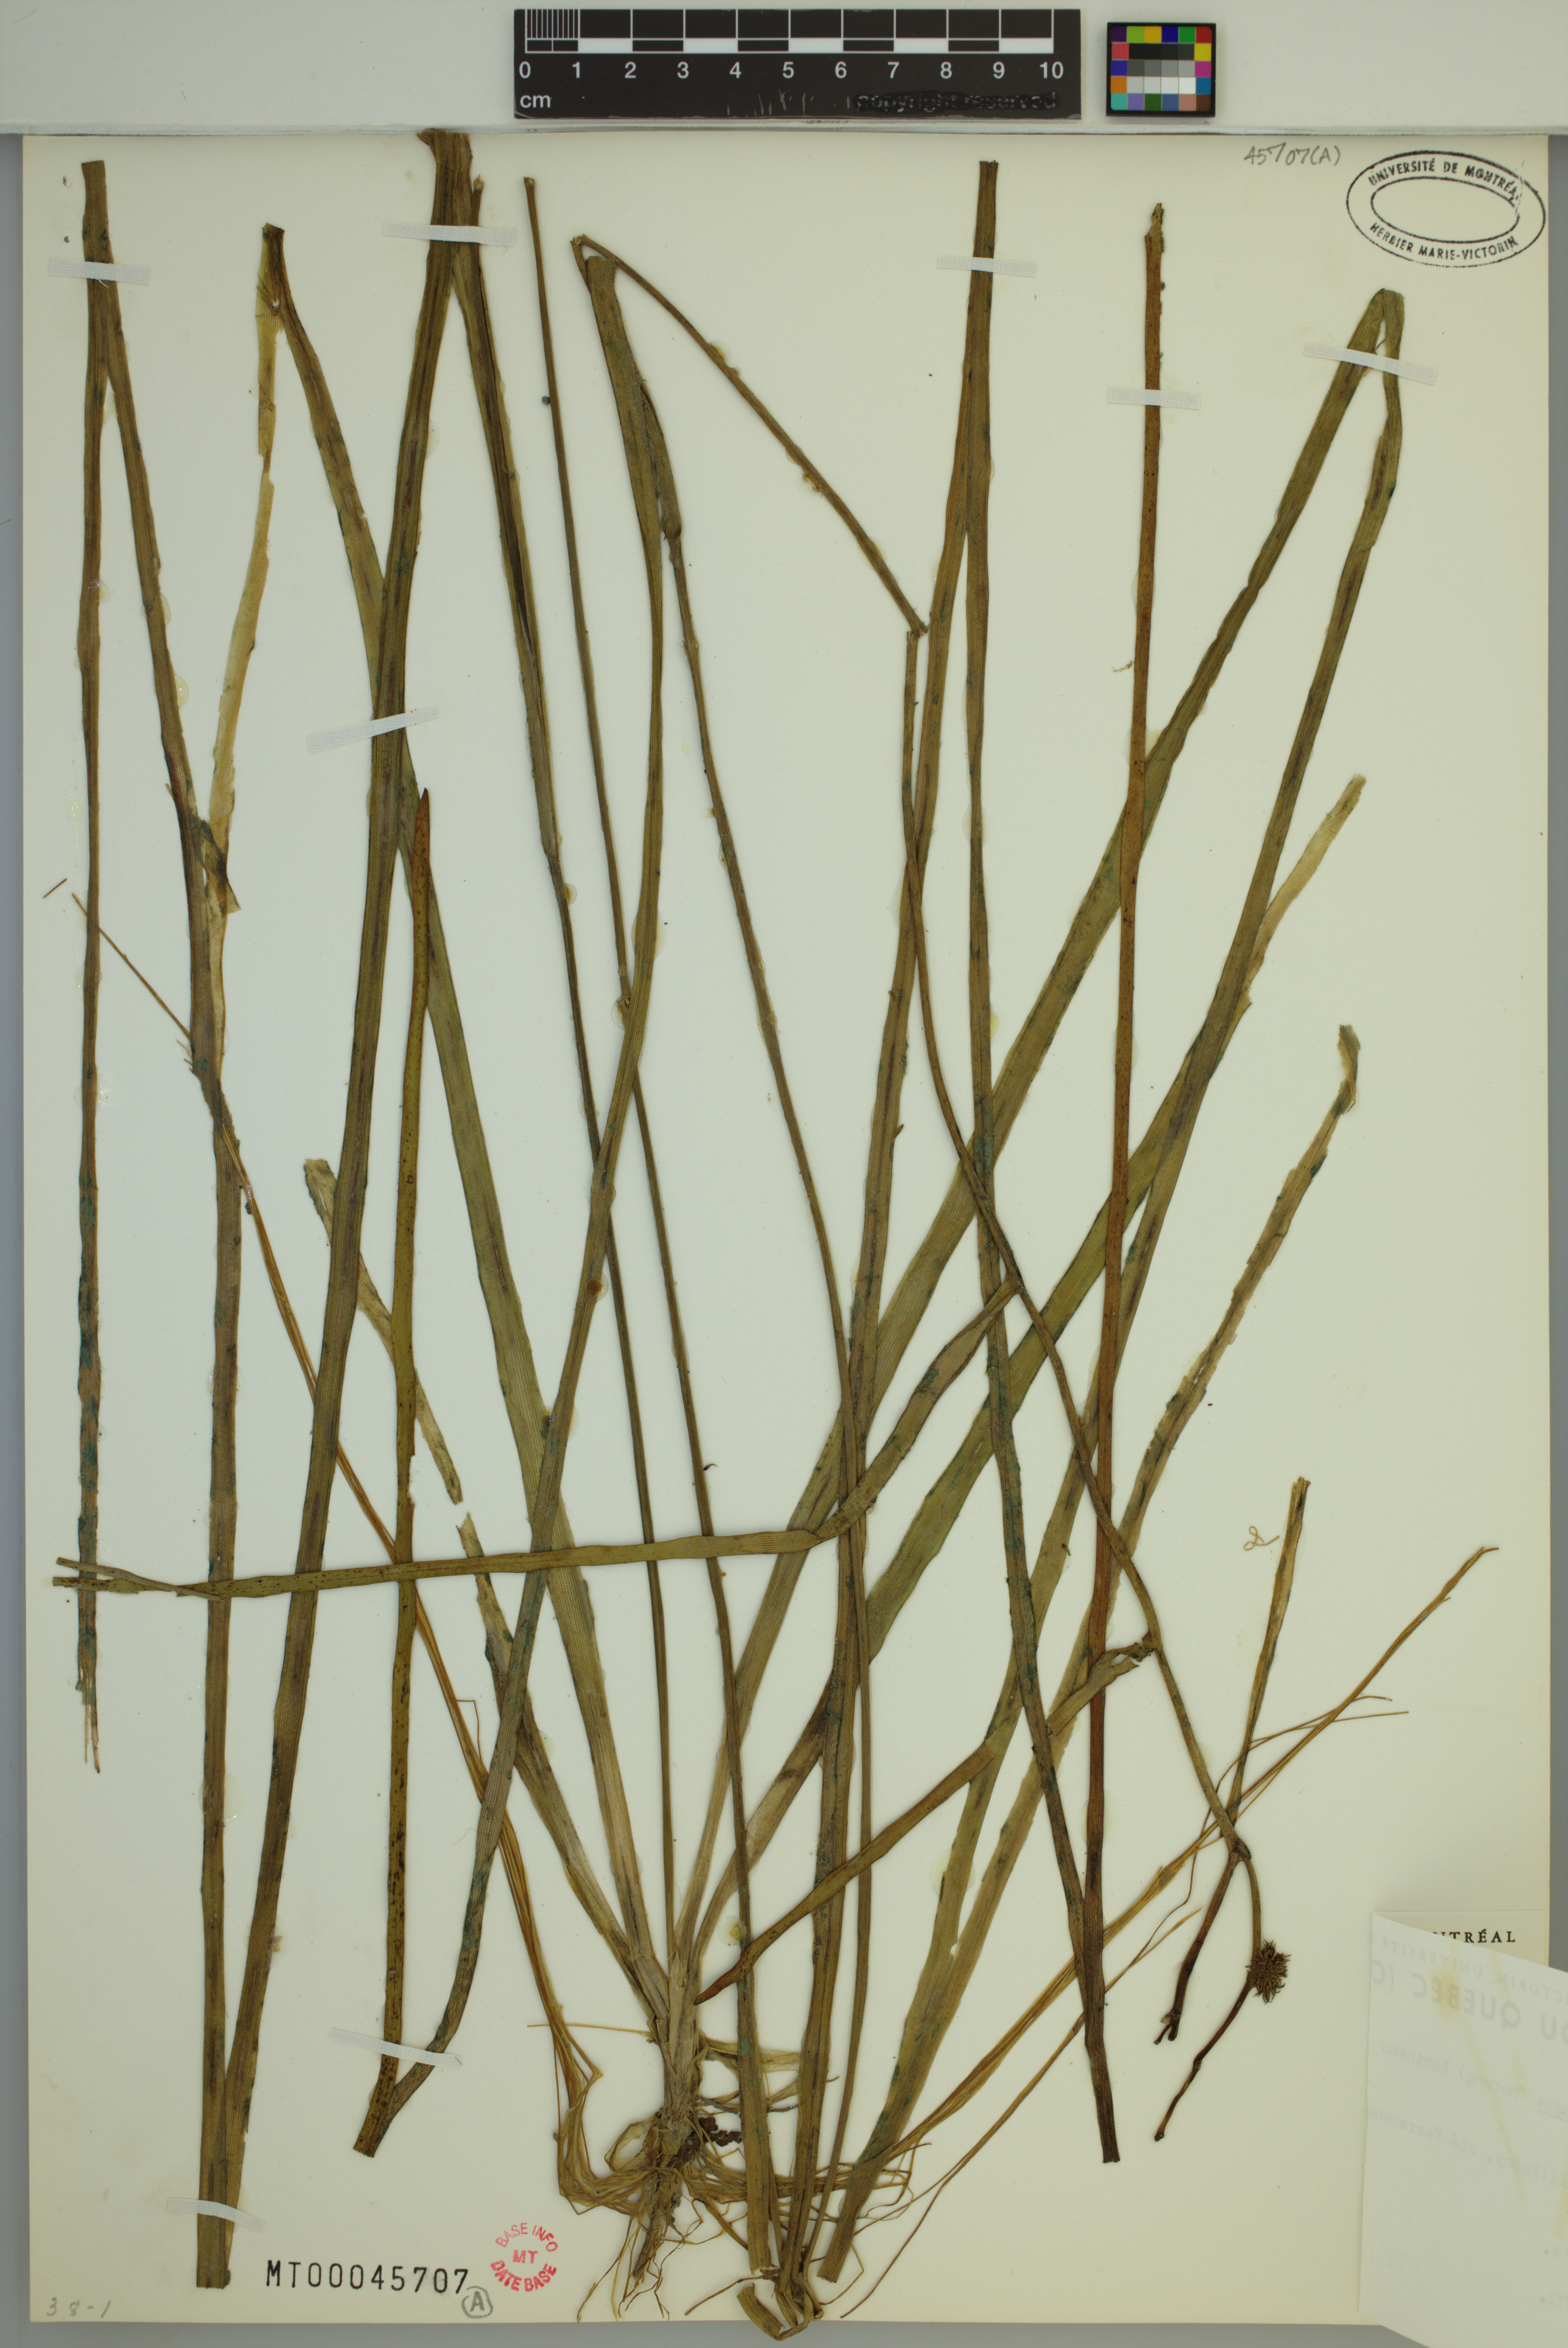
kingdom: Plantae
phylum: Tracheophyta
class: Liliopsida
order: Poales
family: Typhaceae
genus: Sparganium
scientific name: Sparganium fluctuans
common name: Floating burreed
